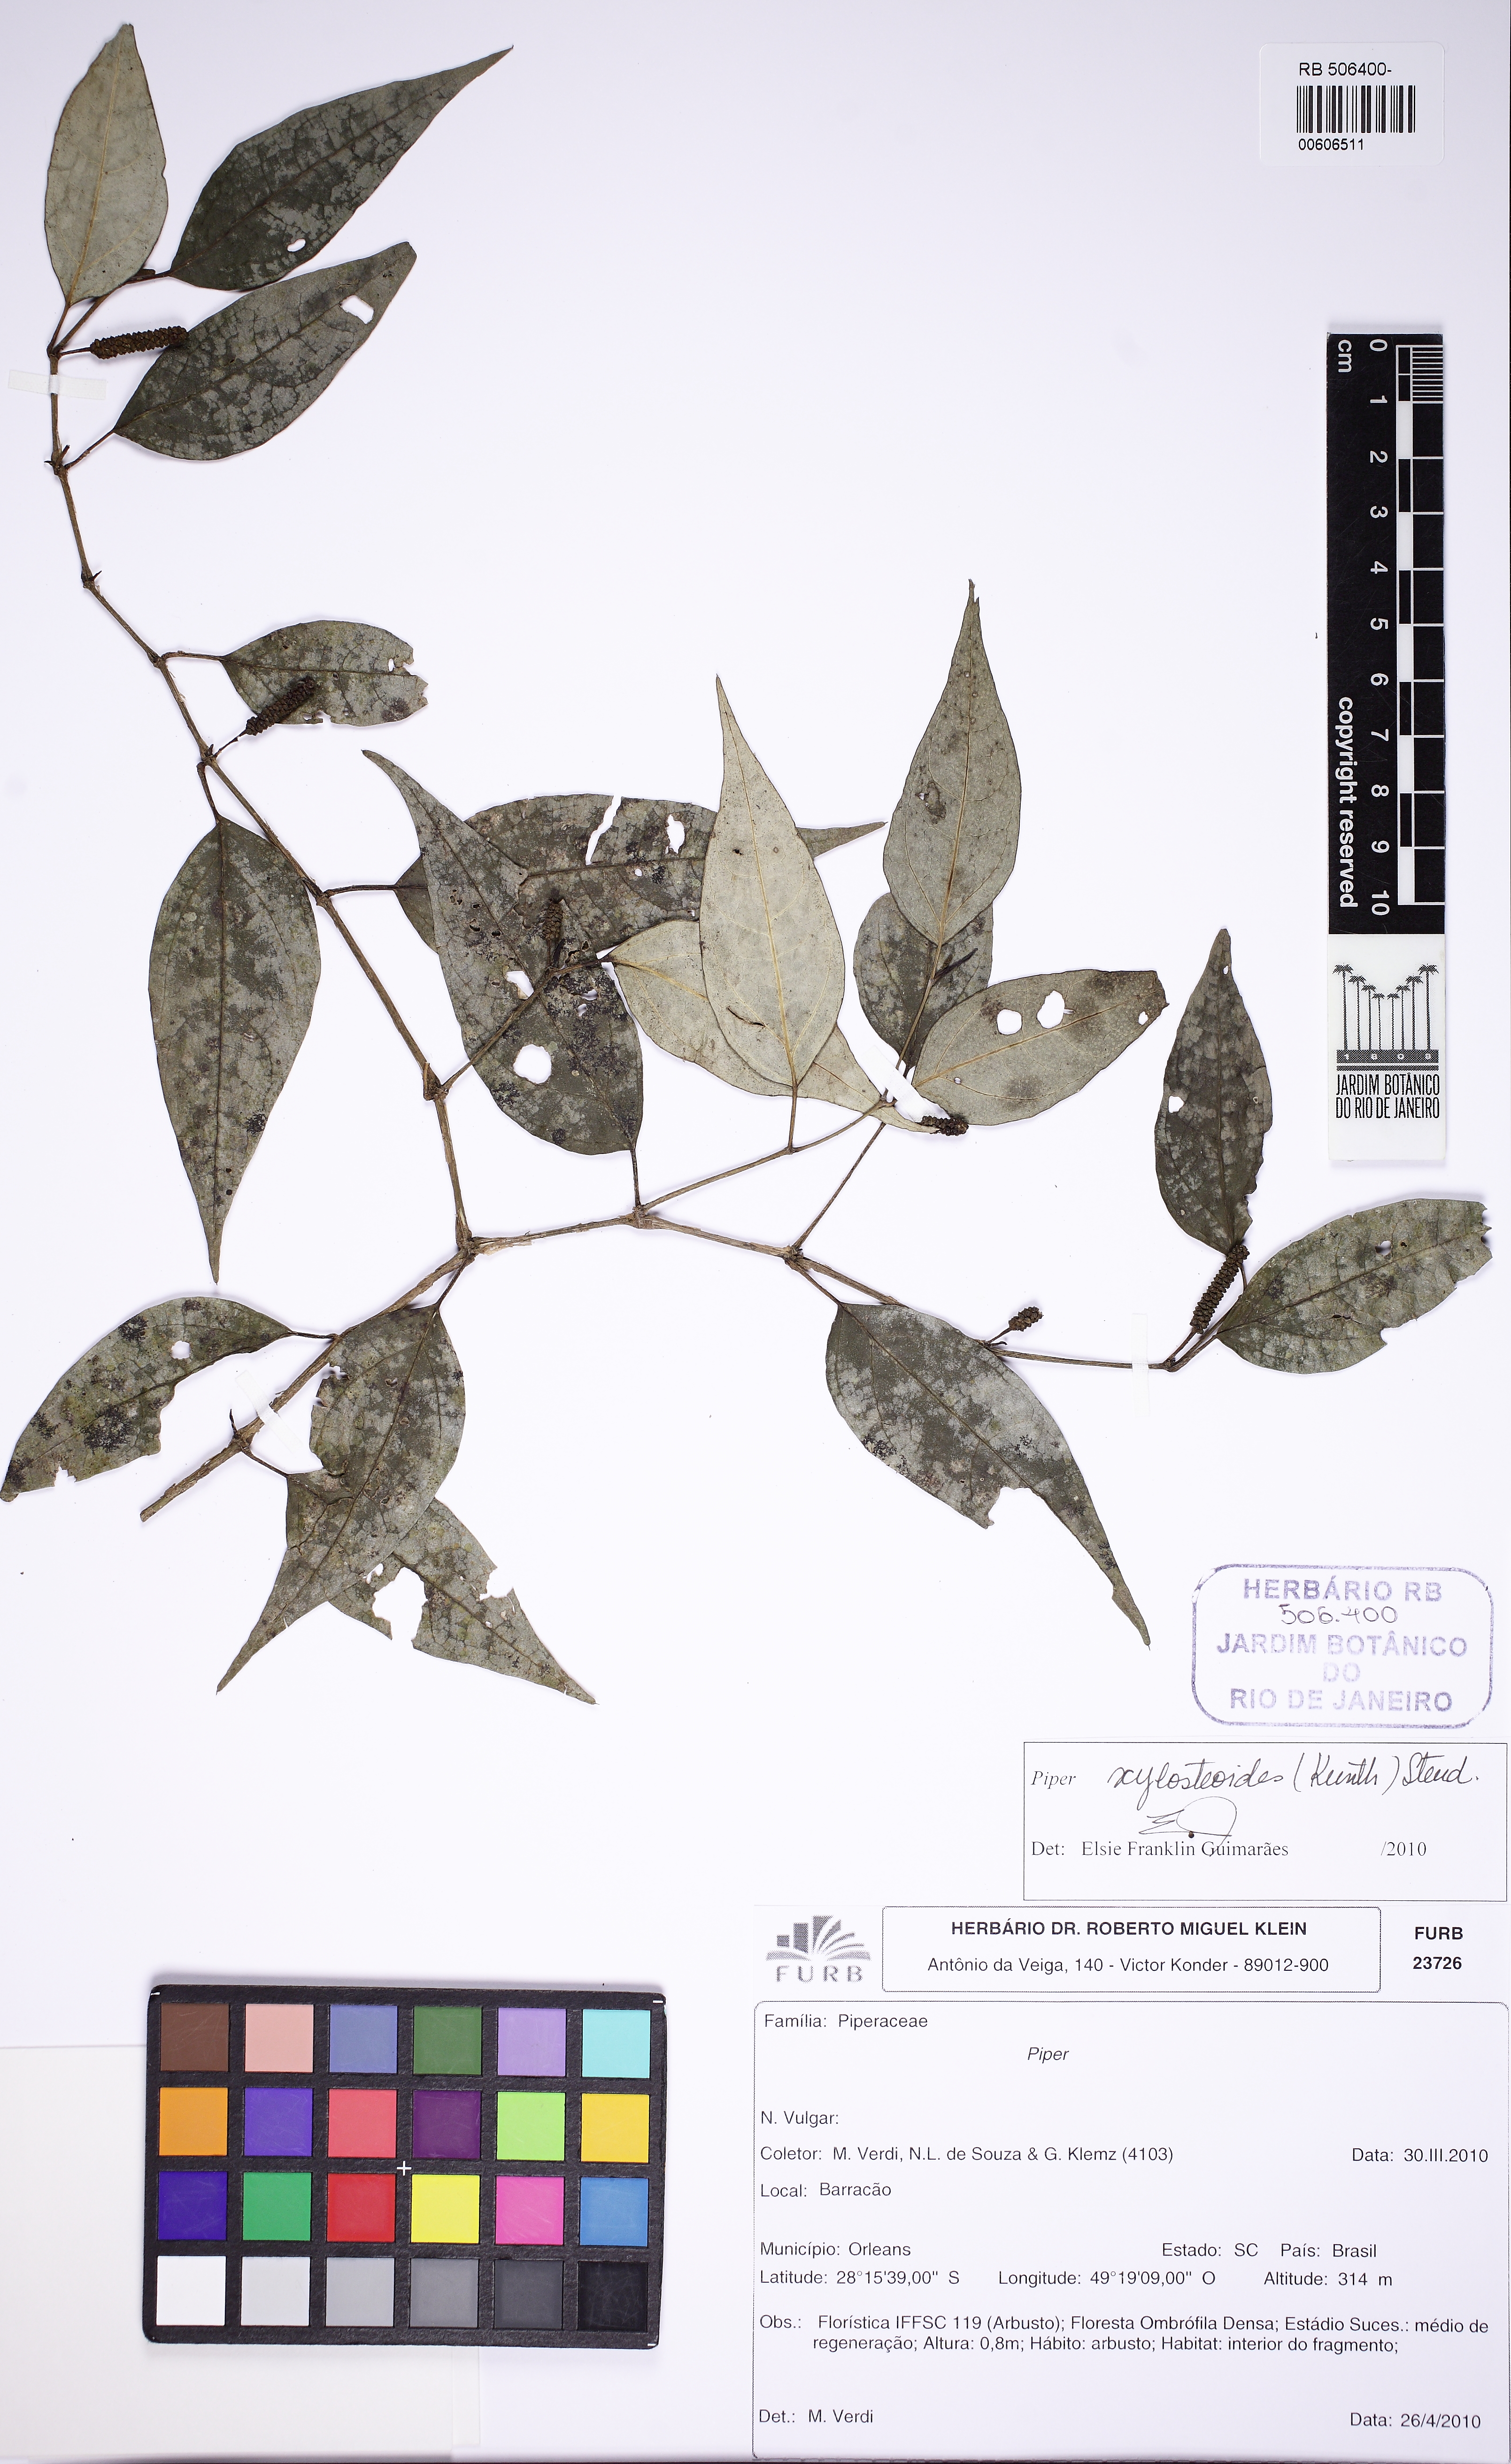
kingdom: Plantae
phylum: Tracheophyta
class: Magnoliopsida
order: Piperales
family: Piperaceae
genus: Piper
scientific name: Piper xylosteoides
